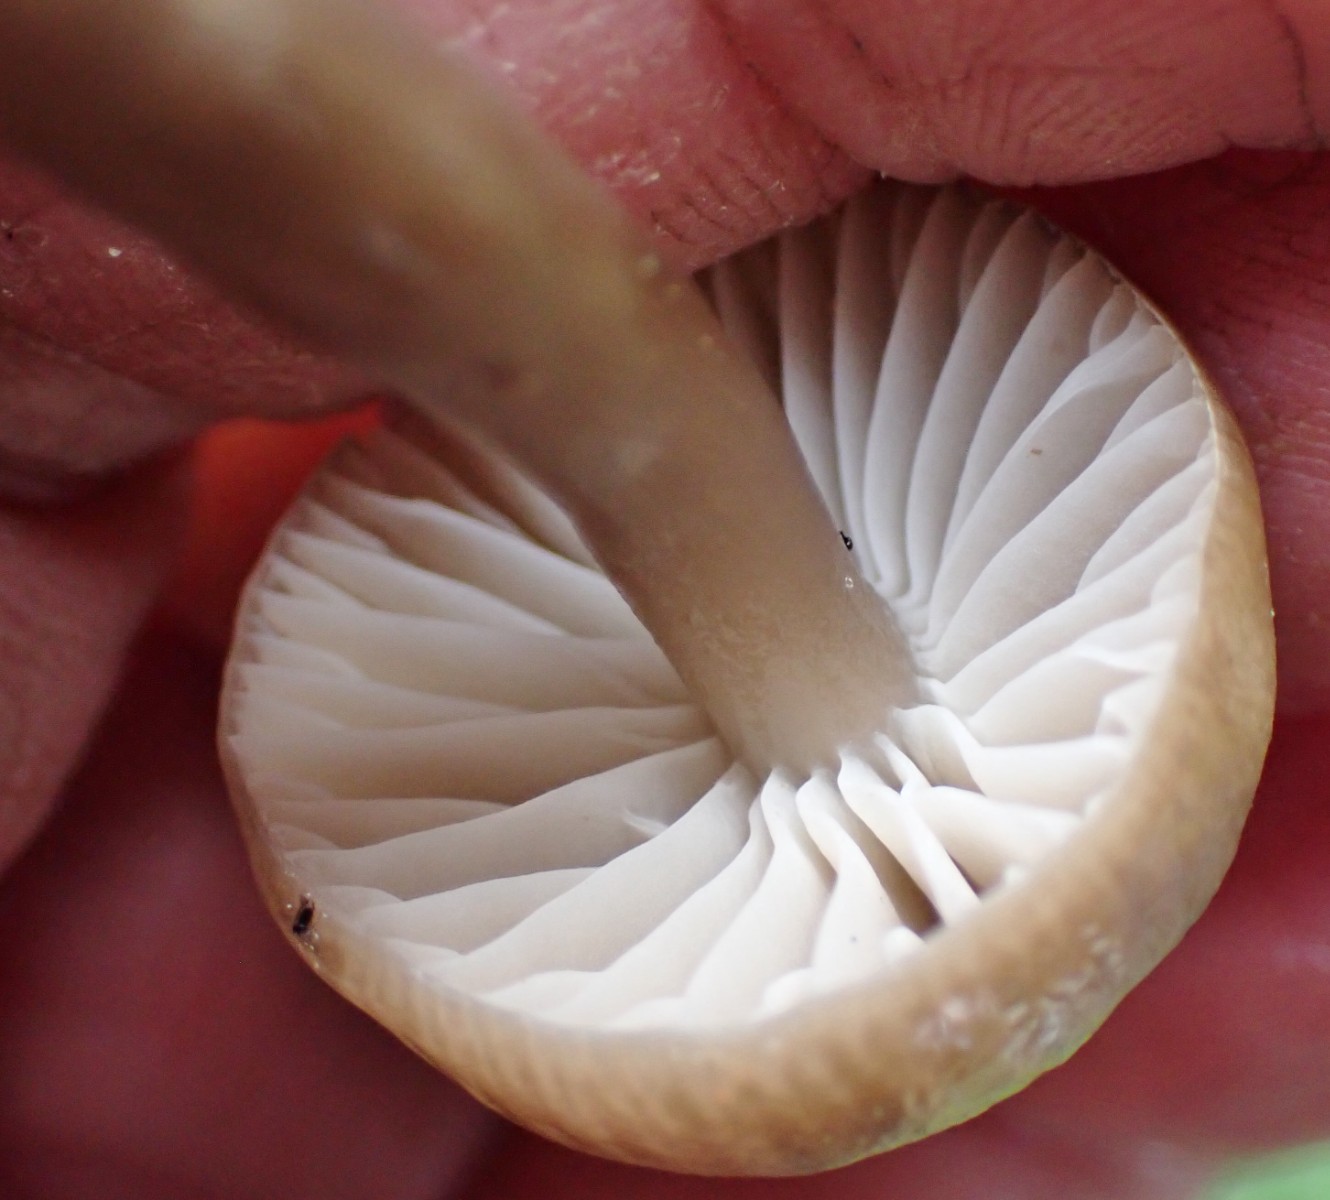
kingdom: Fungi
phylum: Basidiomycota
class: Agaricomycetes
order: Agaricales
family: Hygrophoraceae
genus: Gliophorus
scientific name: Gliophorus irrigatus
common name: slimet vokshat
